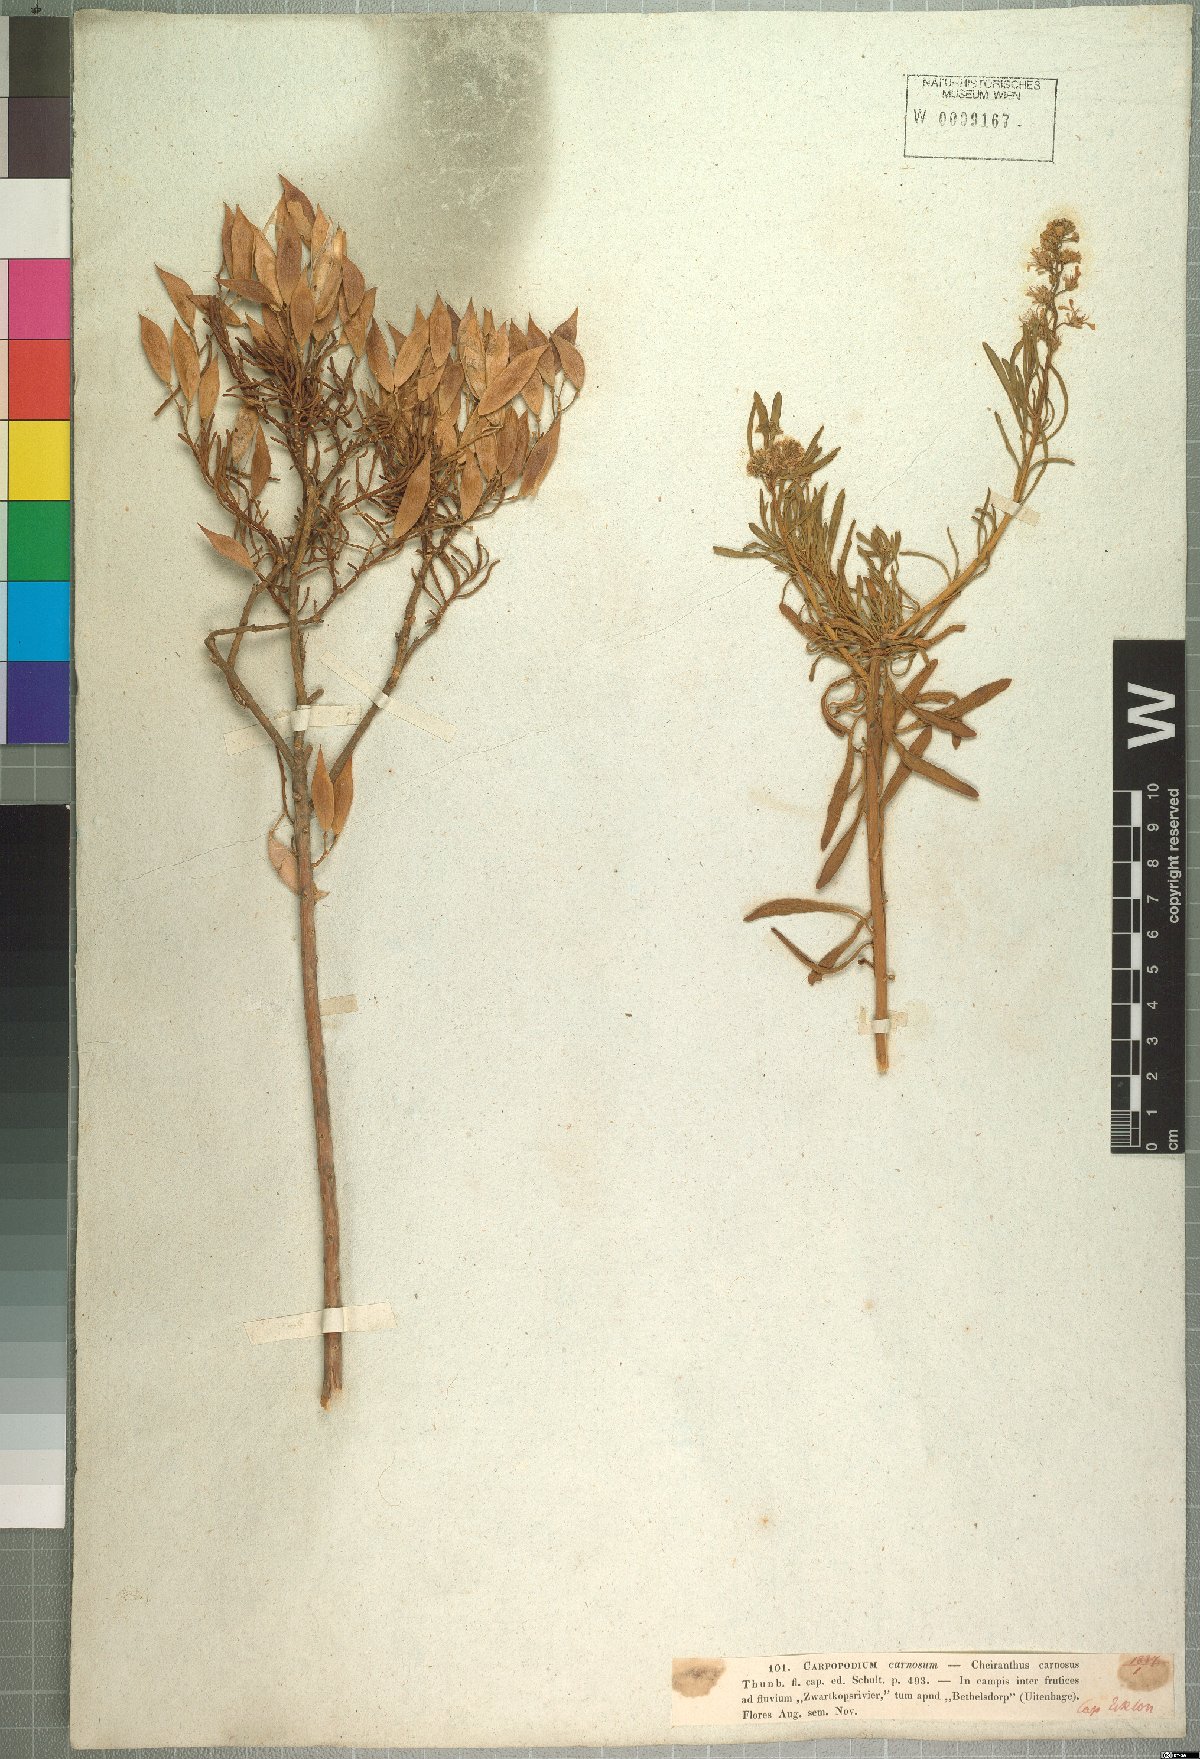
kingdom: Plantae
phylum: Tracheophyta
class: Magnoliopsida
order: Brassicales
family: Brassicaceae
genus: Heliophila
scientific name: Heliophila brachycarpa
